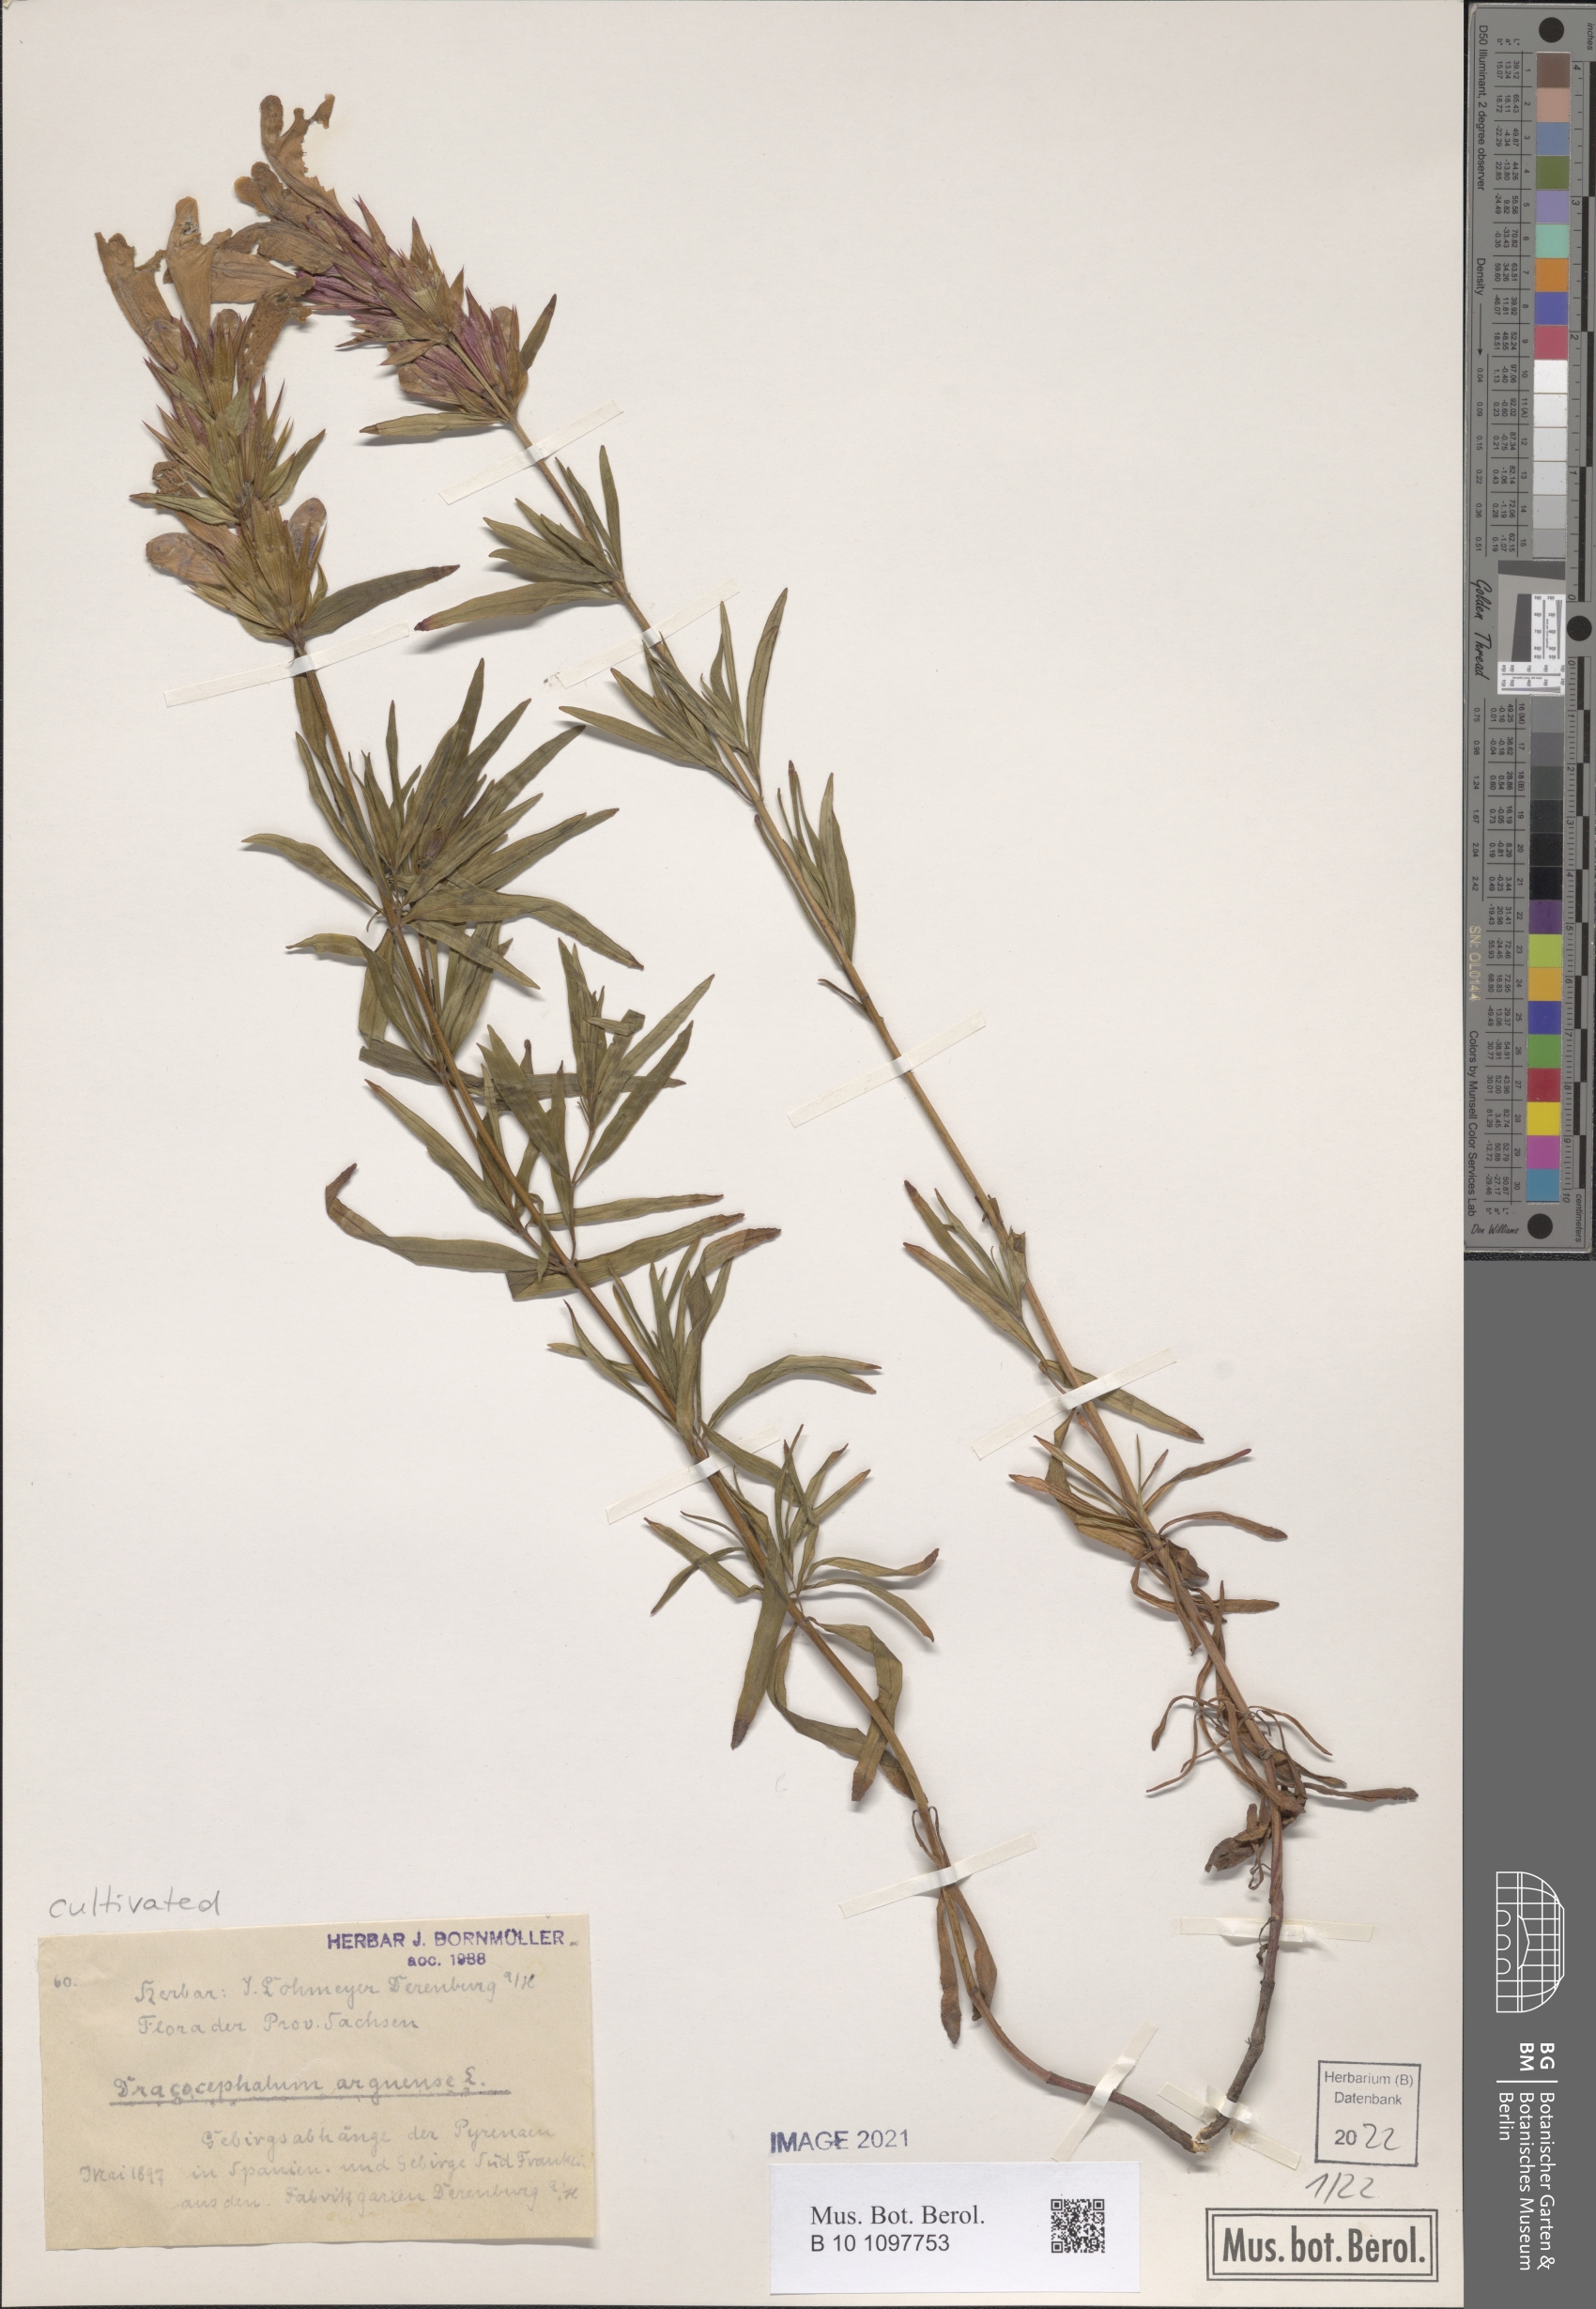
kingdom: Plantae
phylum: Tracheophyta
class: Magnoliopsida
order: Lamiales
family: Lamiaceae
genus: Dracocephalum
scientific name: Dracocephalum argunense
